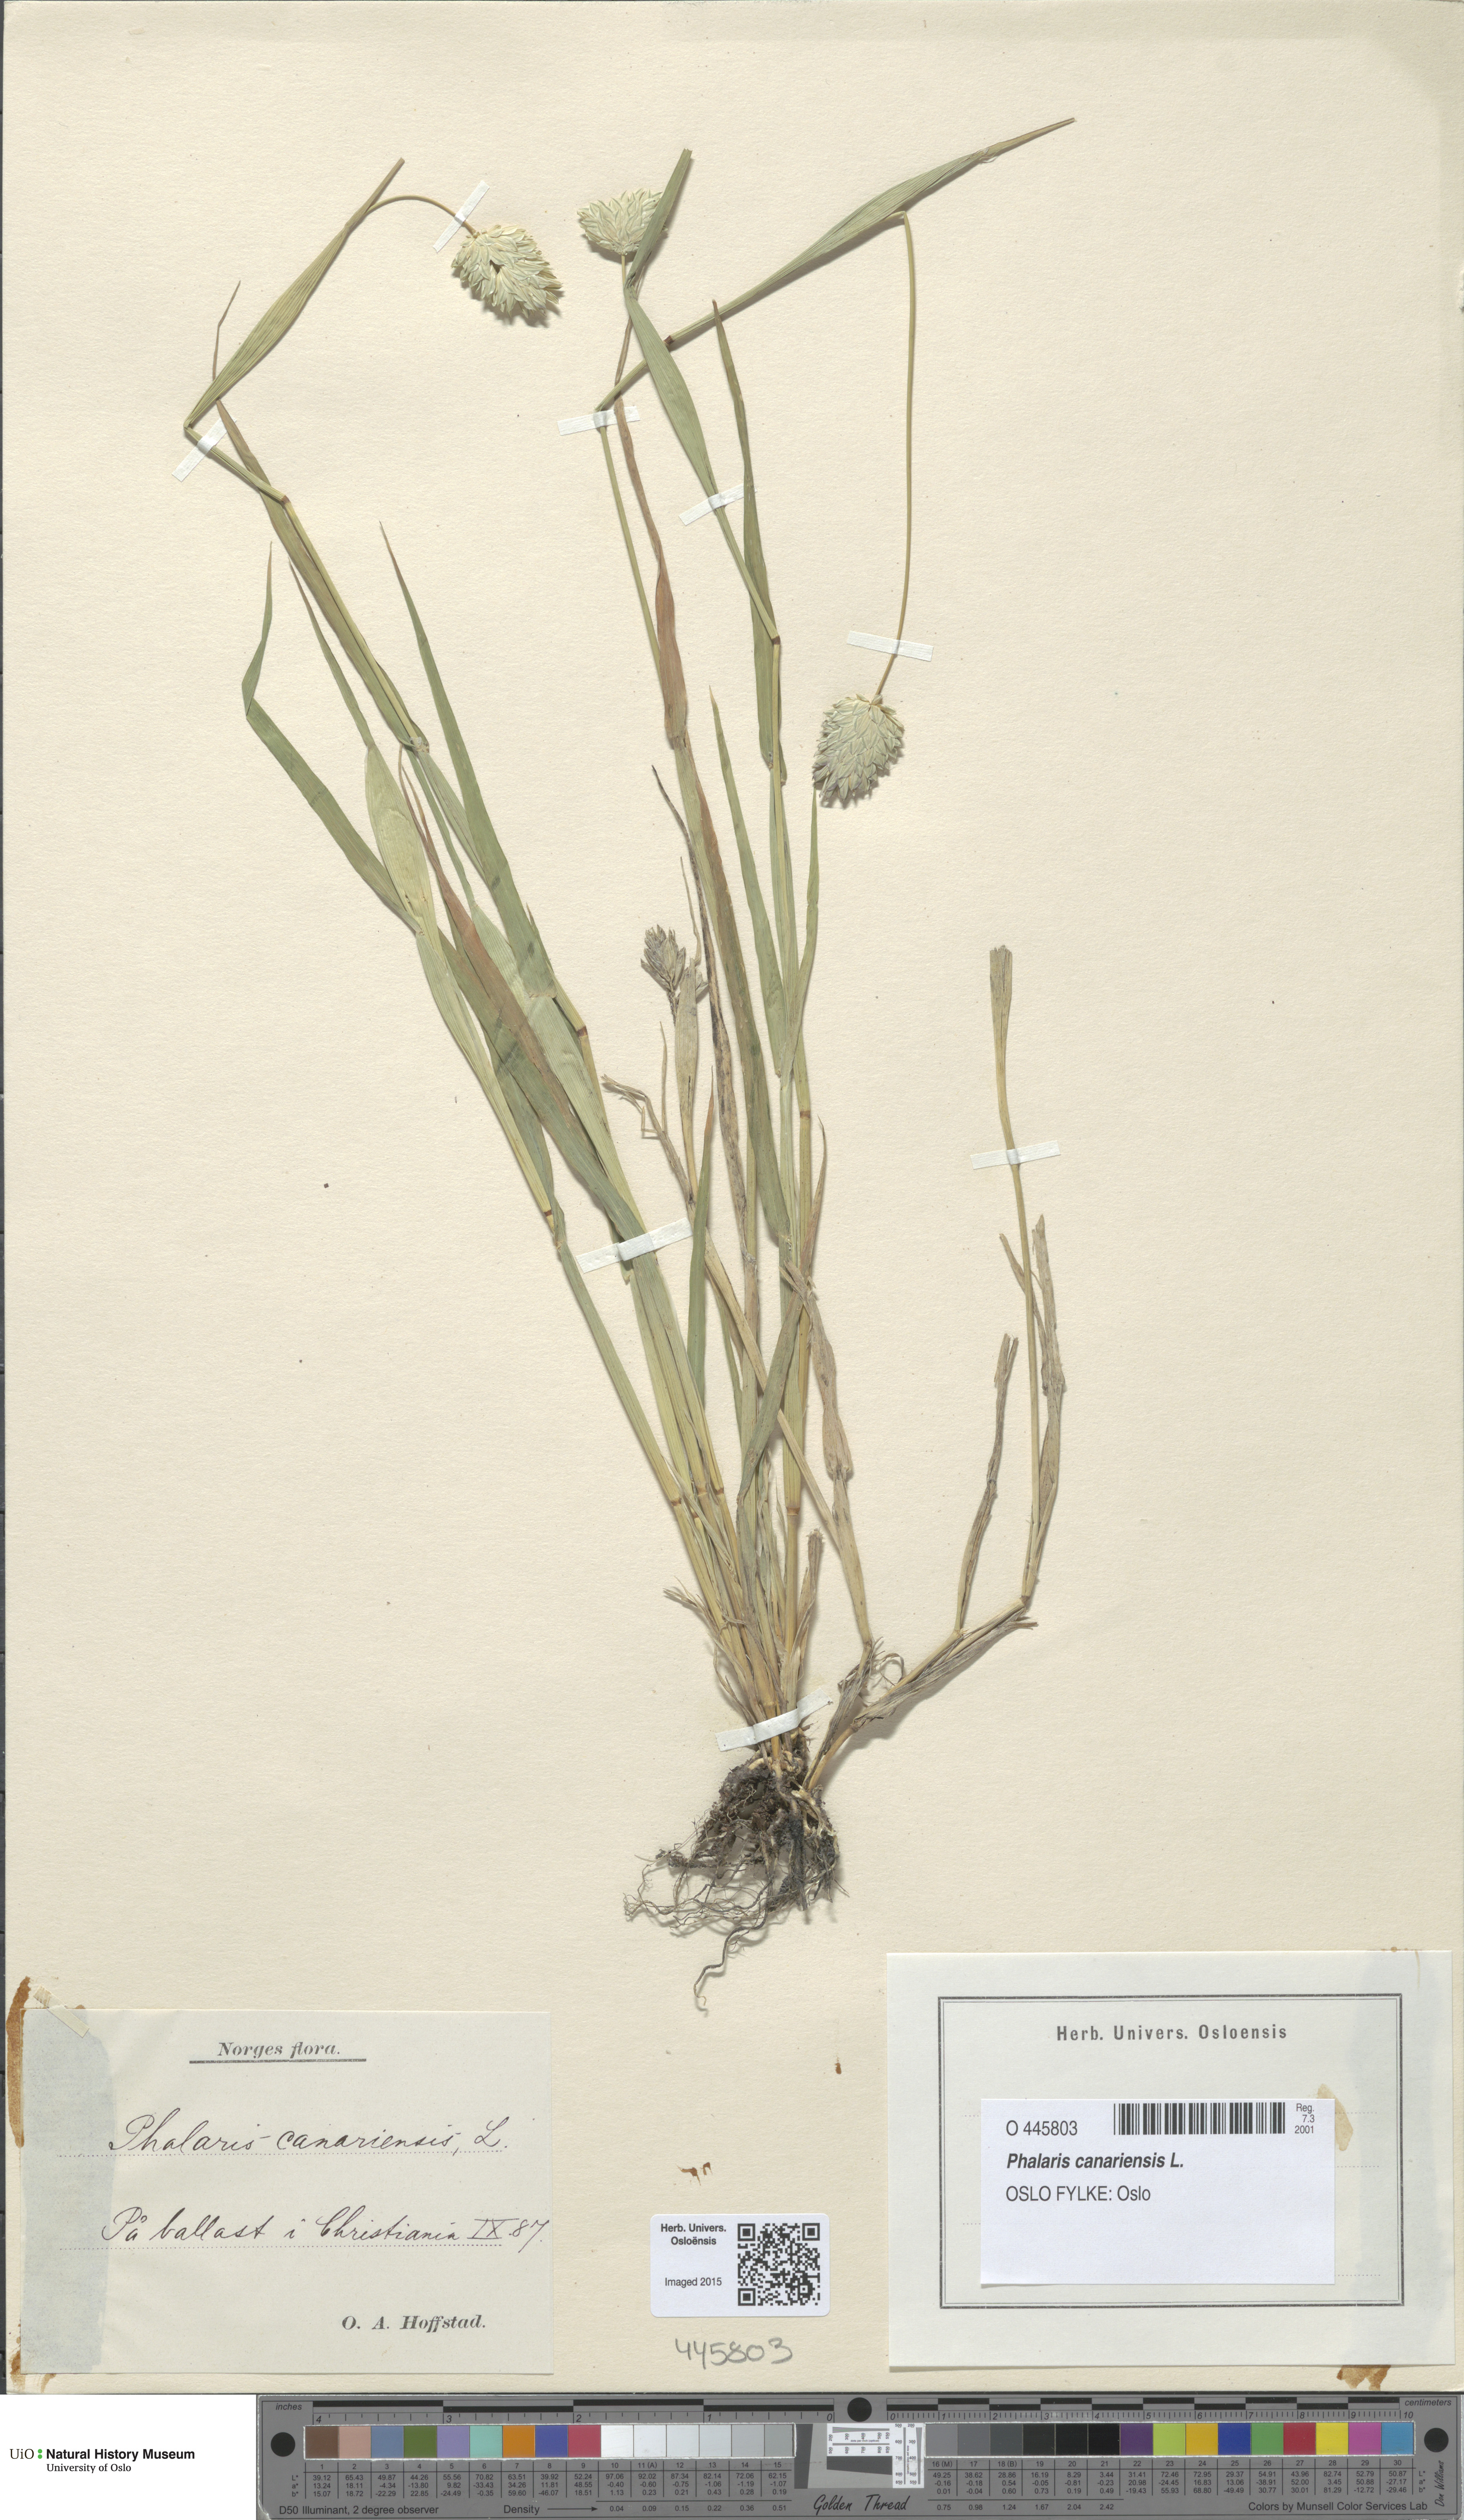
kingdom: Plantae
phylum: Tracheophyta
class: Liliopsida
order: Poales
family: Poaceae
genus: Phalaris
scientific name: Phalaris canariensis
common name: Annual canarygrass
